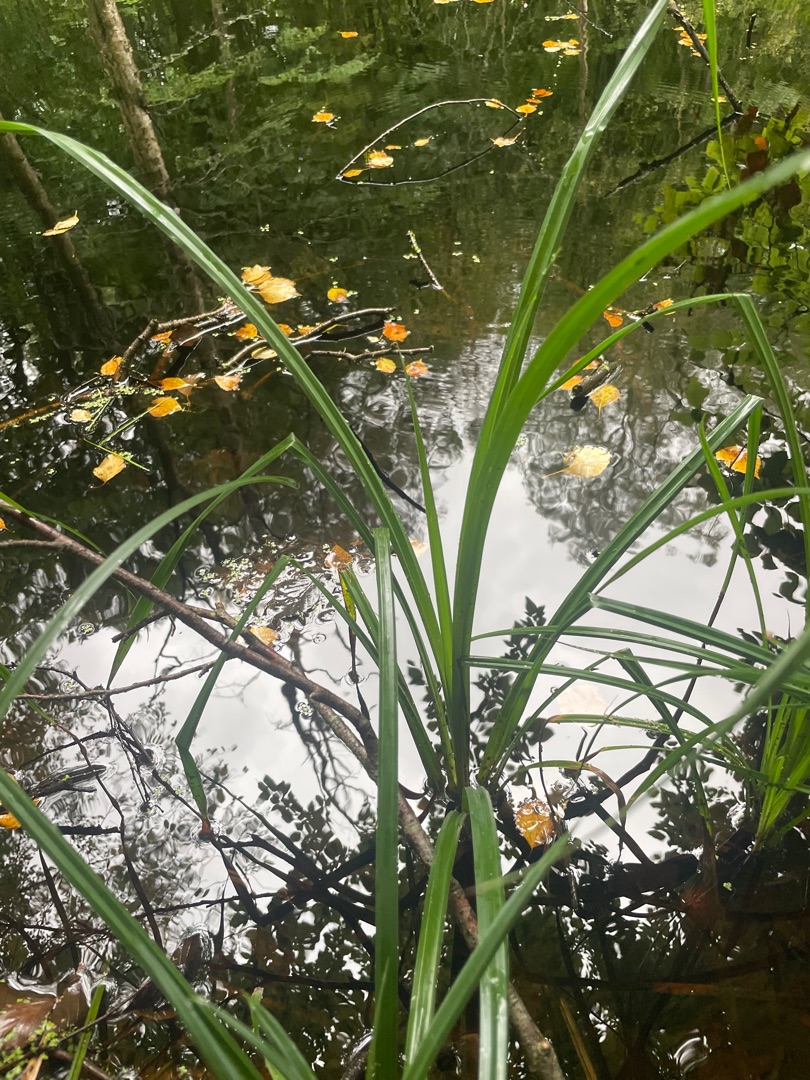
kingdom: Plantae
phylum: Tracheophyta
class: Liliopsida
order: Poales
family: Cyperaceae
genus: Scirpus
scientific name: Scirpus sylvaticus
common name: Skov-kogleaks
